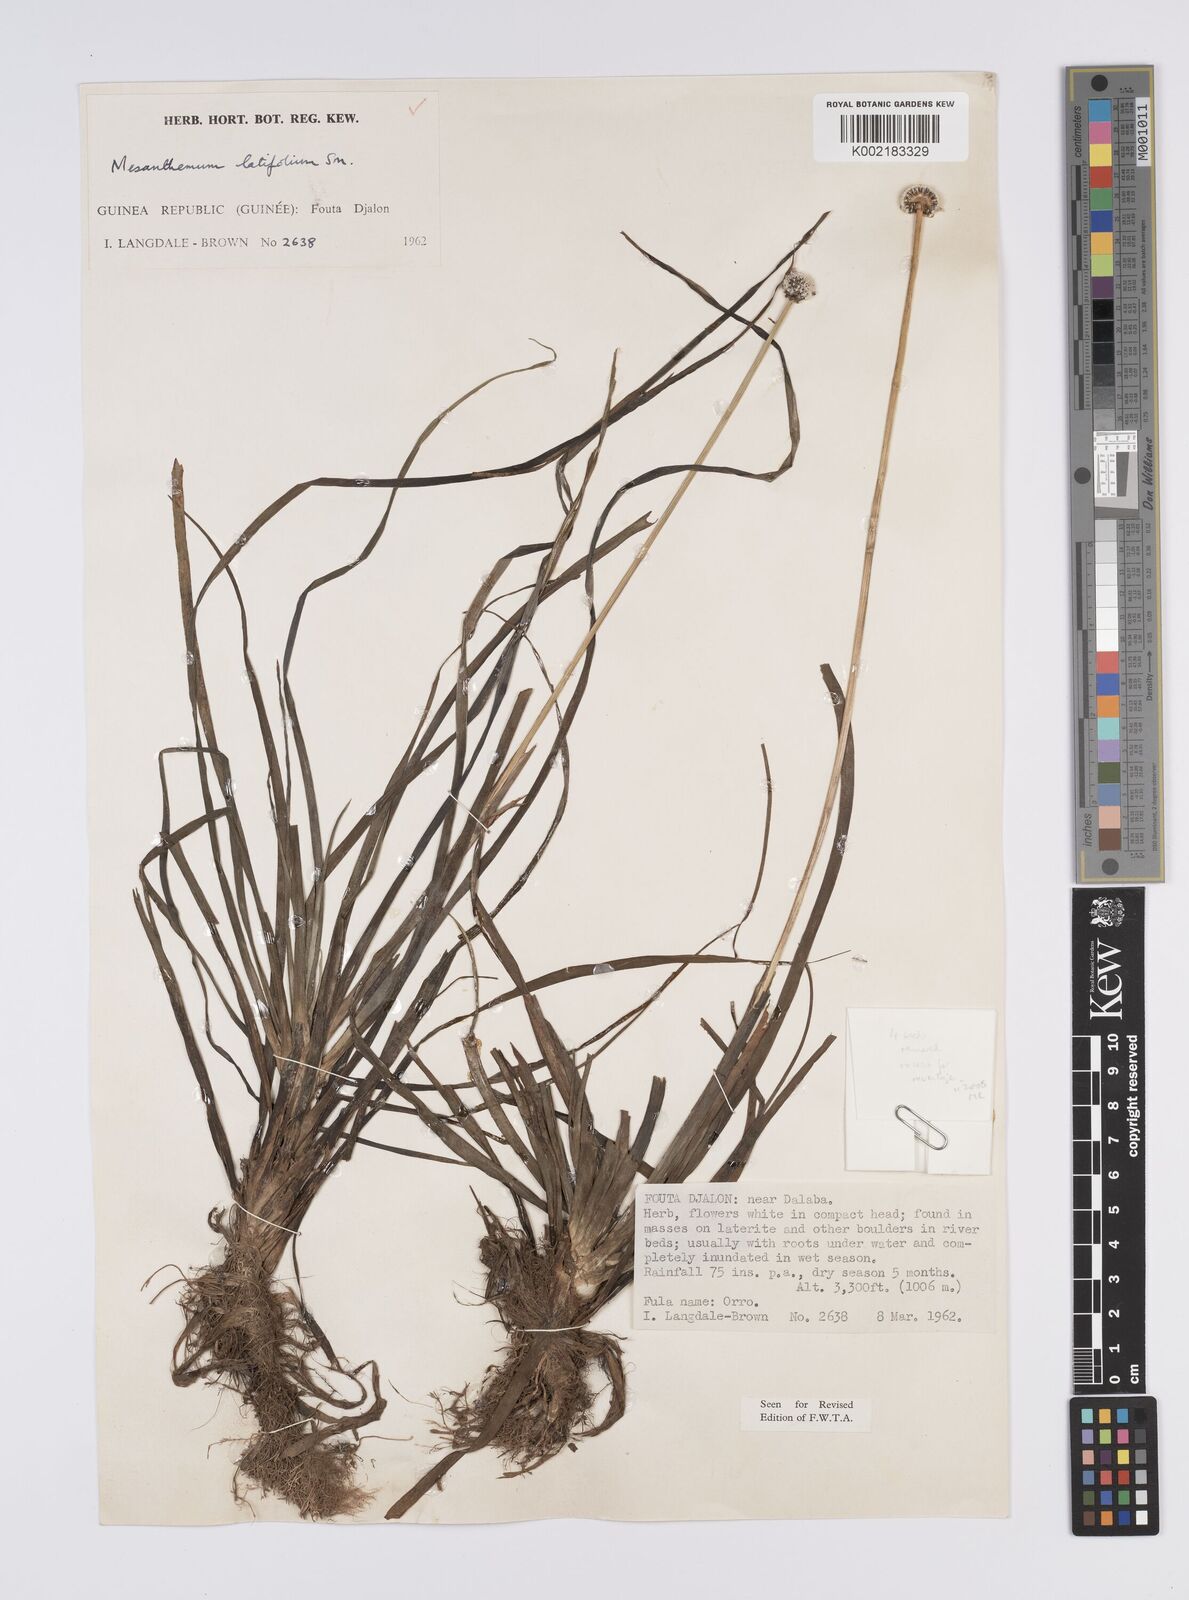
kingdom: Plantae
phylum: Tracheophyta
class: Liliopsida
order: Poales
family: Eriocaulaceae
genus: Eriocaulon
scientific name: Eriocaulon latifolium
